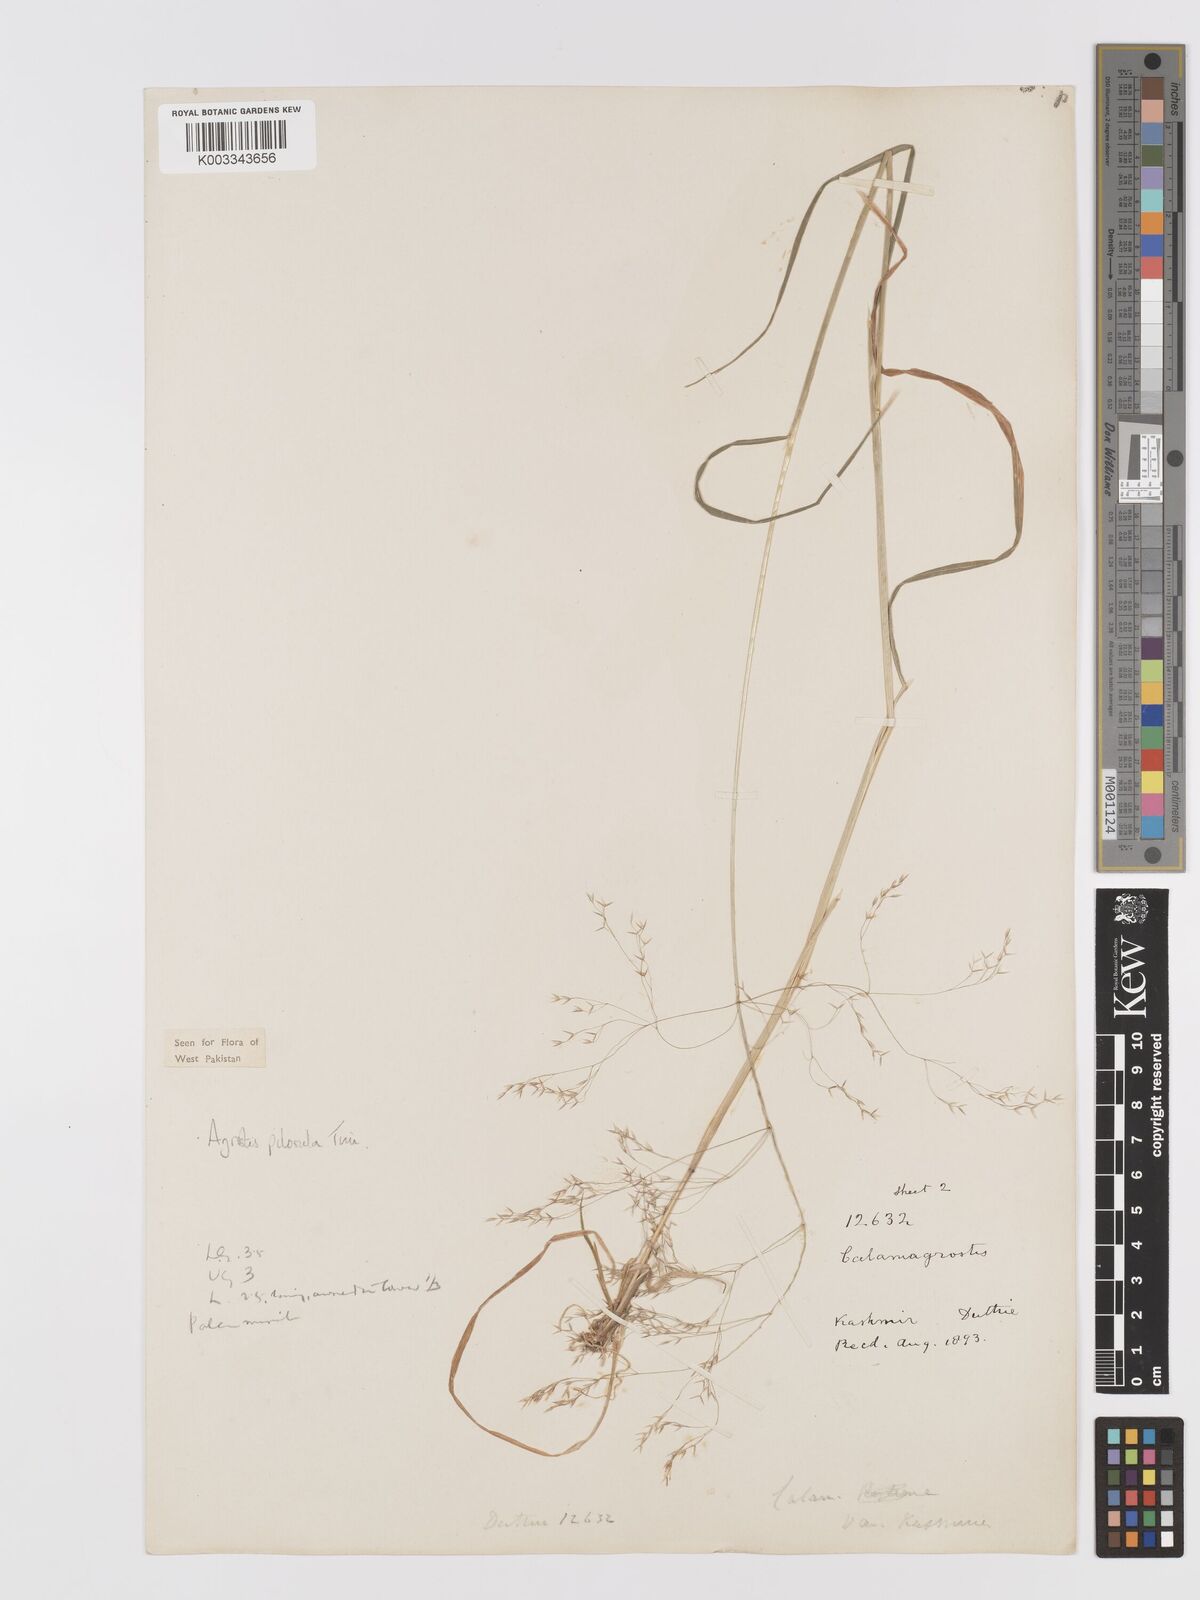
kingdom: Plantae
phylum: Tracheophyta
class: Liliopsida
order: Poales
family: Poaceae
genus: Agrostis
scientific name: Agrostis pilosula
